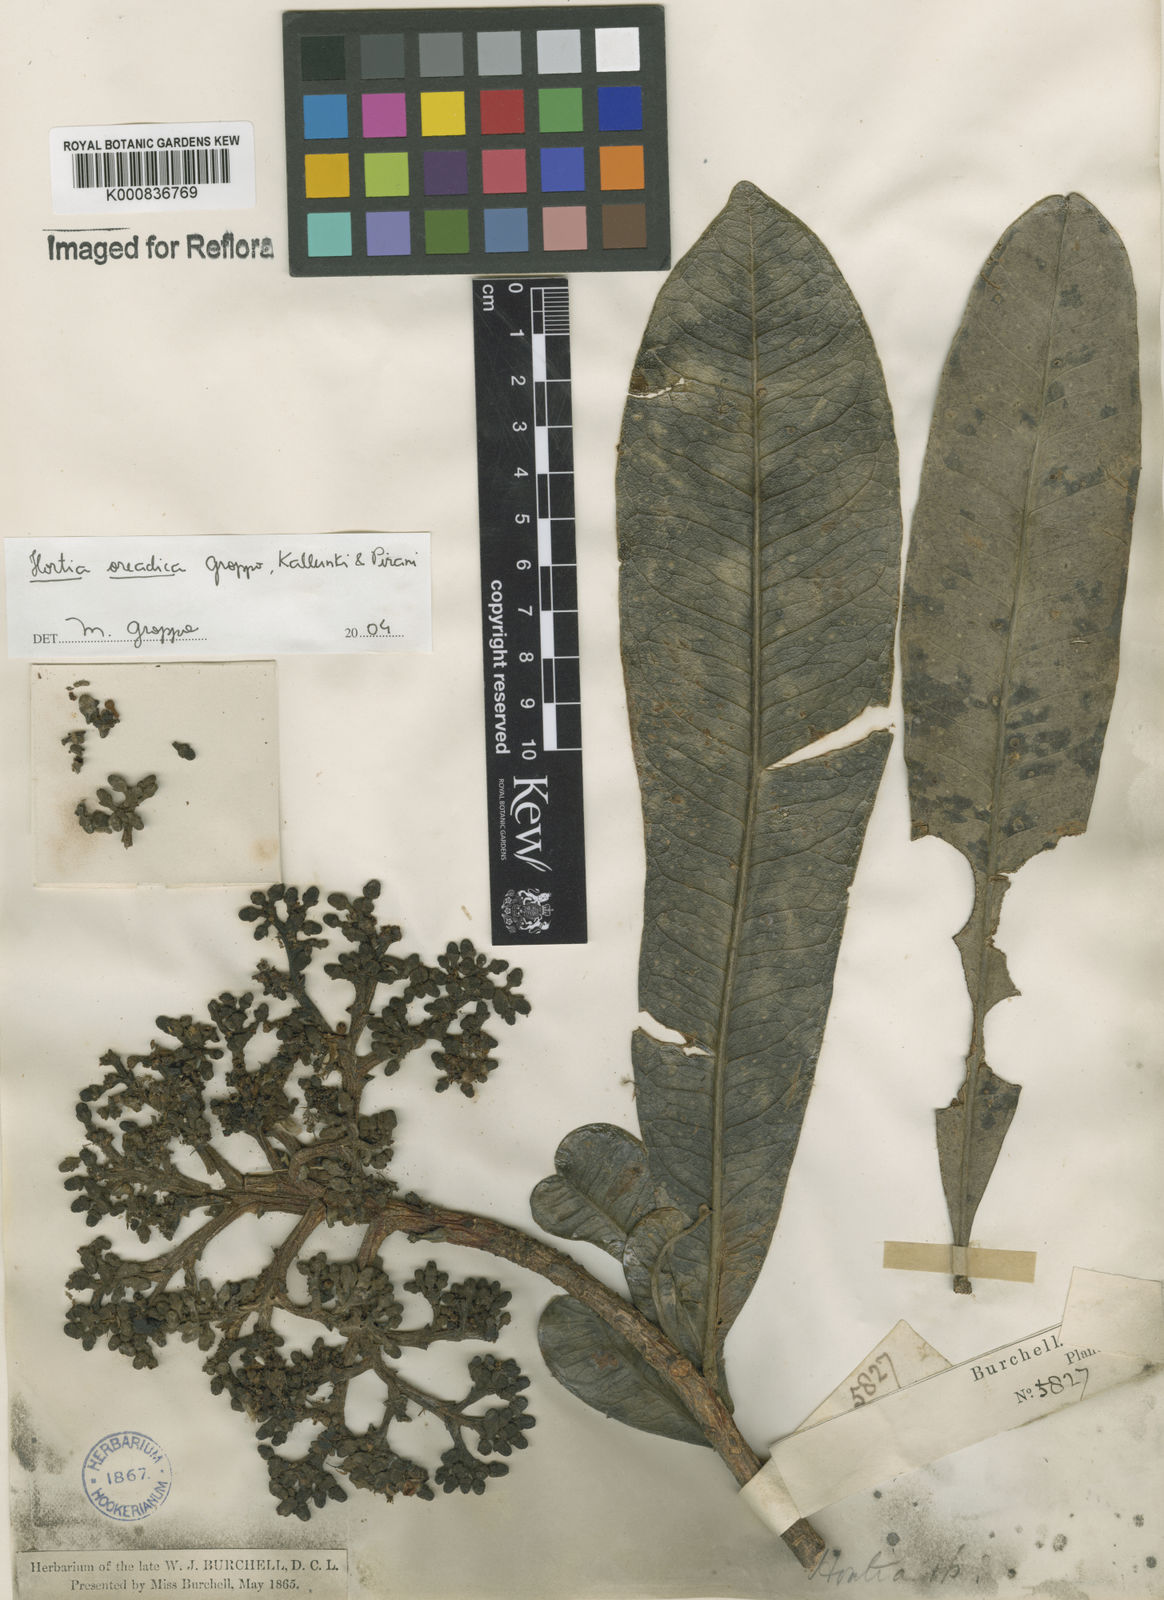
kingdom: Plantae
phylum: Tracheophyta
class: Magnoliopsida
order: Sapindales
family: Rutaceae
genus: Hortia
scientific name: Hortia brasiliana
